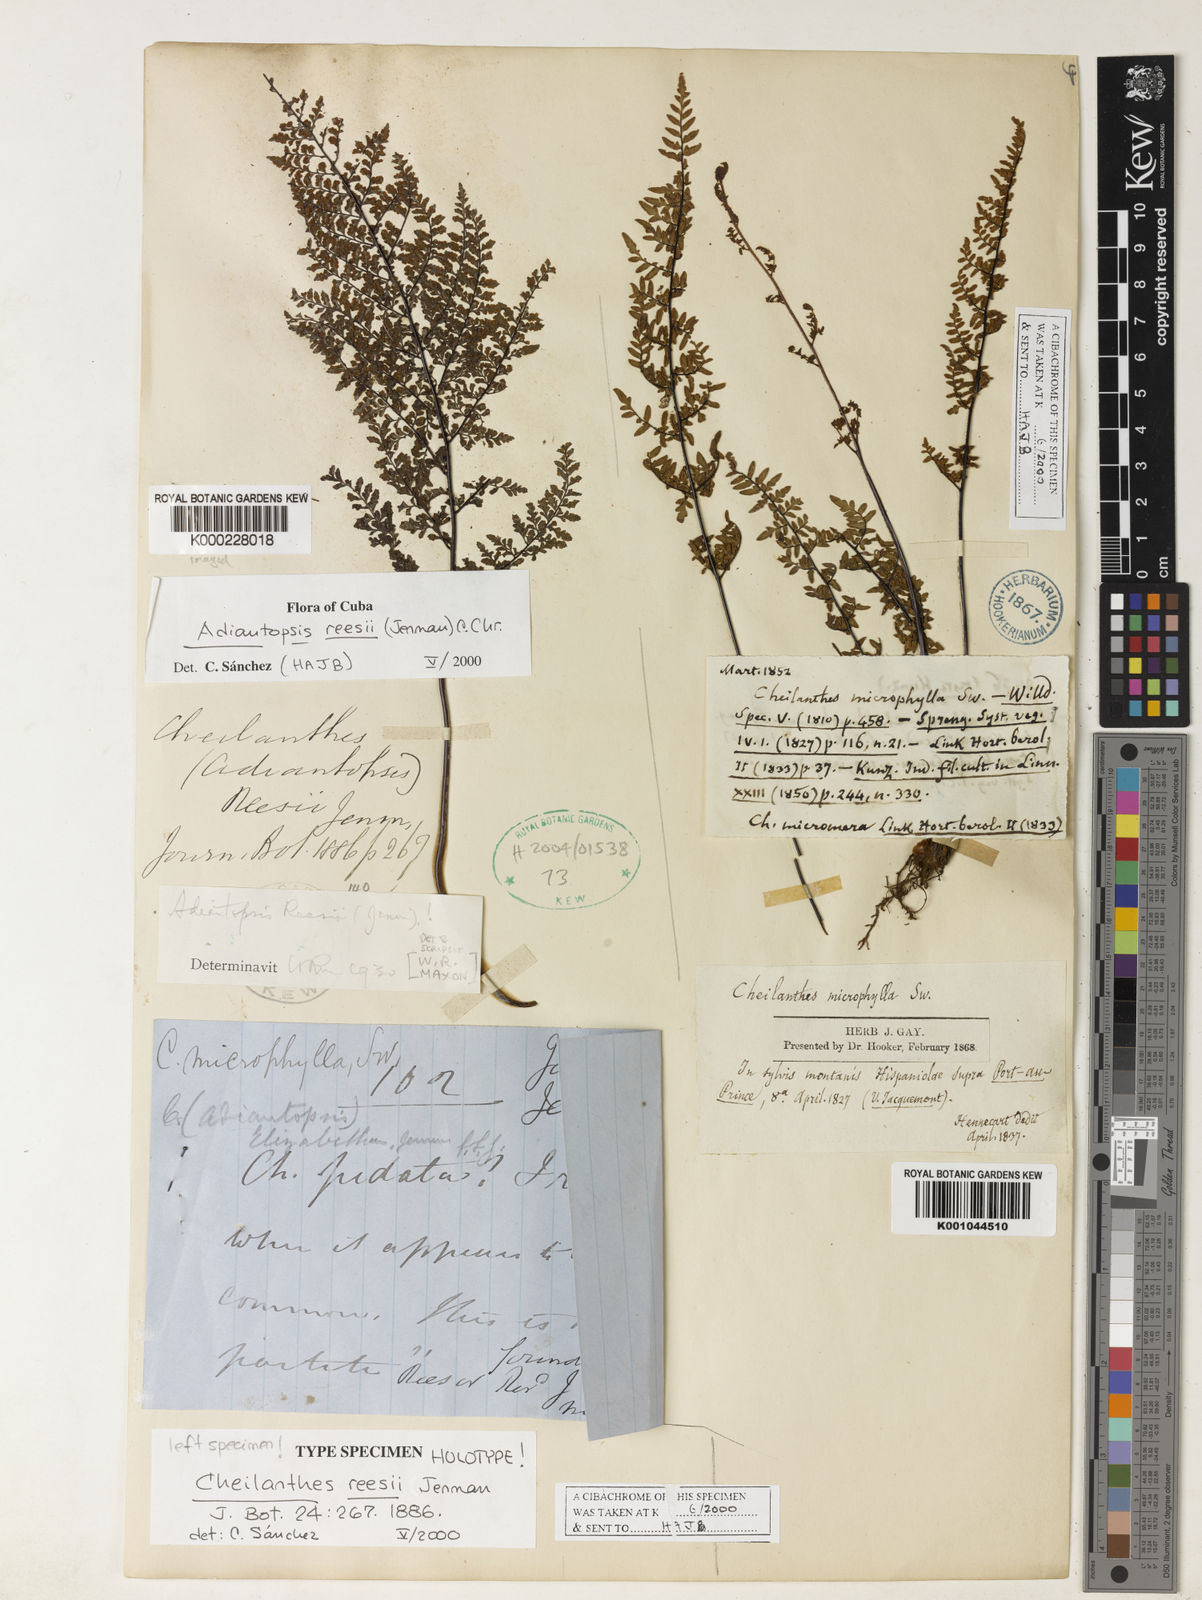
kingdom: Plantae
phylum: Tracheophyta
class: Polypodiopsida
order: Polypodiales
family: Pteridaceae
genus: Adiantopsis
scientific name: Adiantopsis reesii
